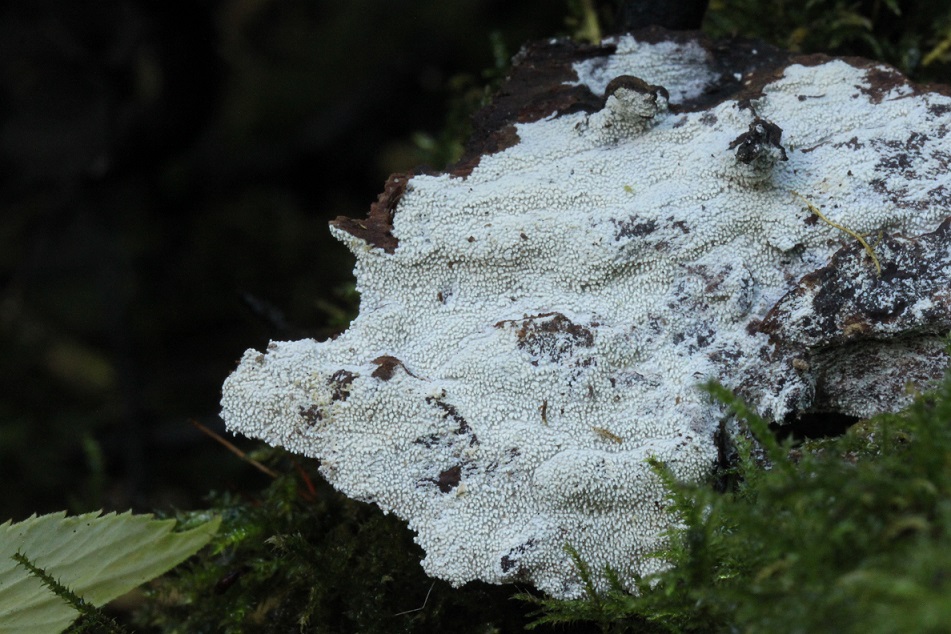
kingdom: Fungi
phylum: Basidiomycota
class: Agaricomycetes
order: Hymenochaetales
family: Hyphodontiaceae
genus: Hyphodontia
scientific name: Hyphodontia arguta
